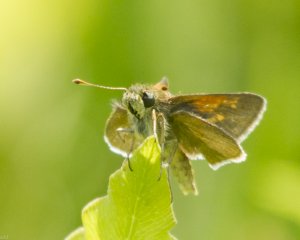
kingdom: Animalia
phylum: Arthropoda
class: Insecta
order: Lepidoptera
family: Hesperiidae
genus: Polites
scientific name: Polites
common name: Long Dash Skipper
